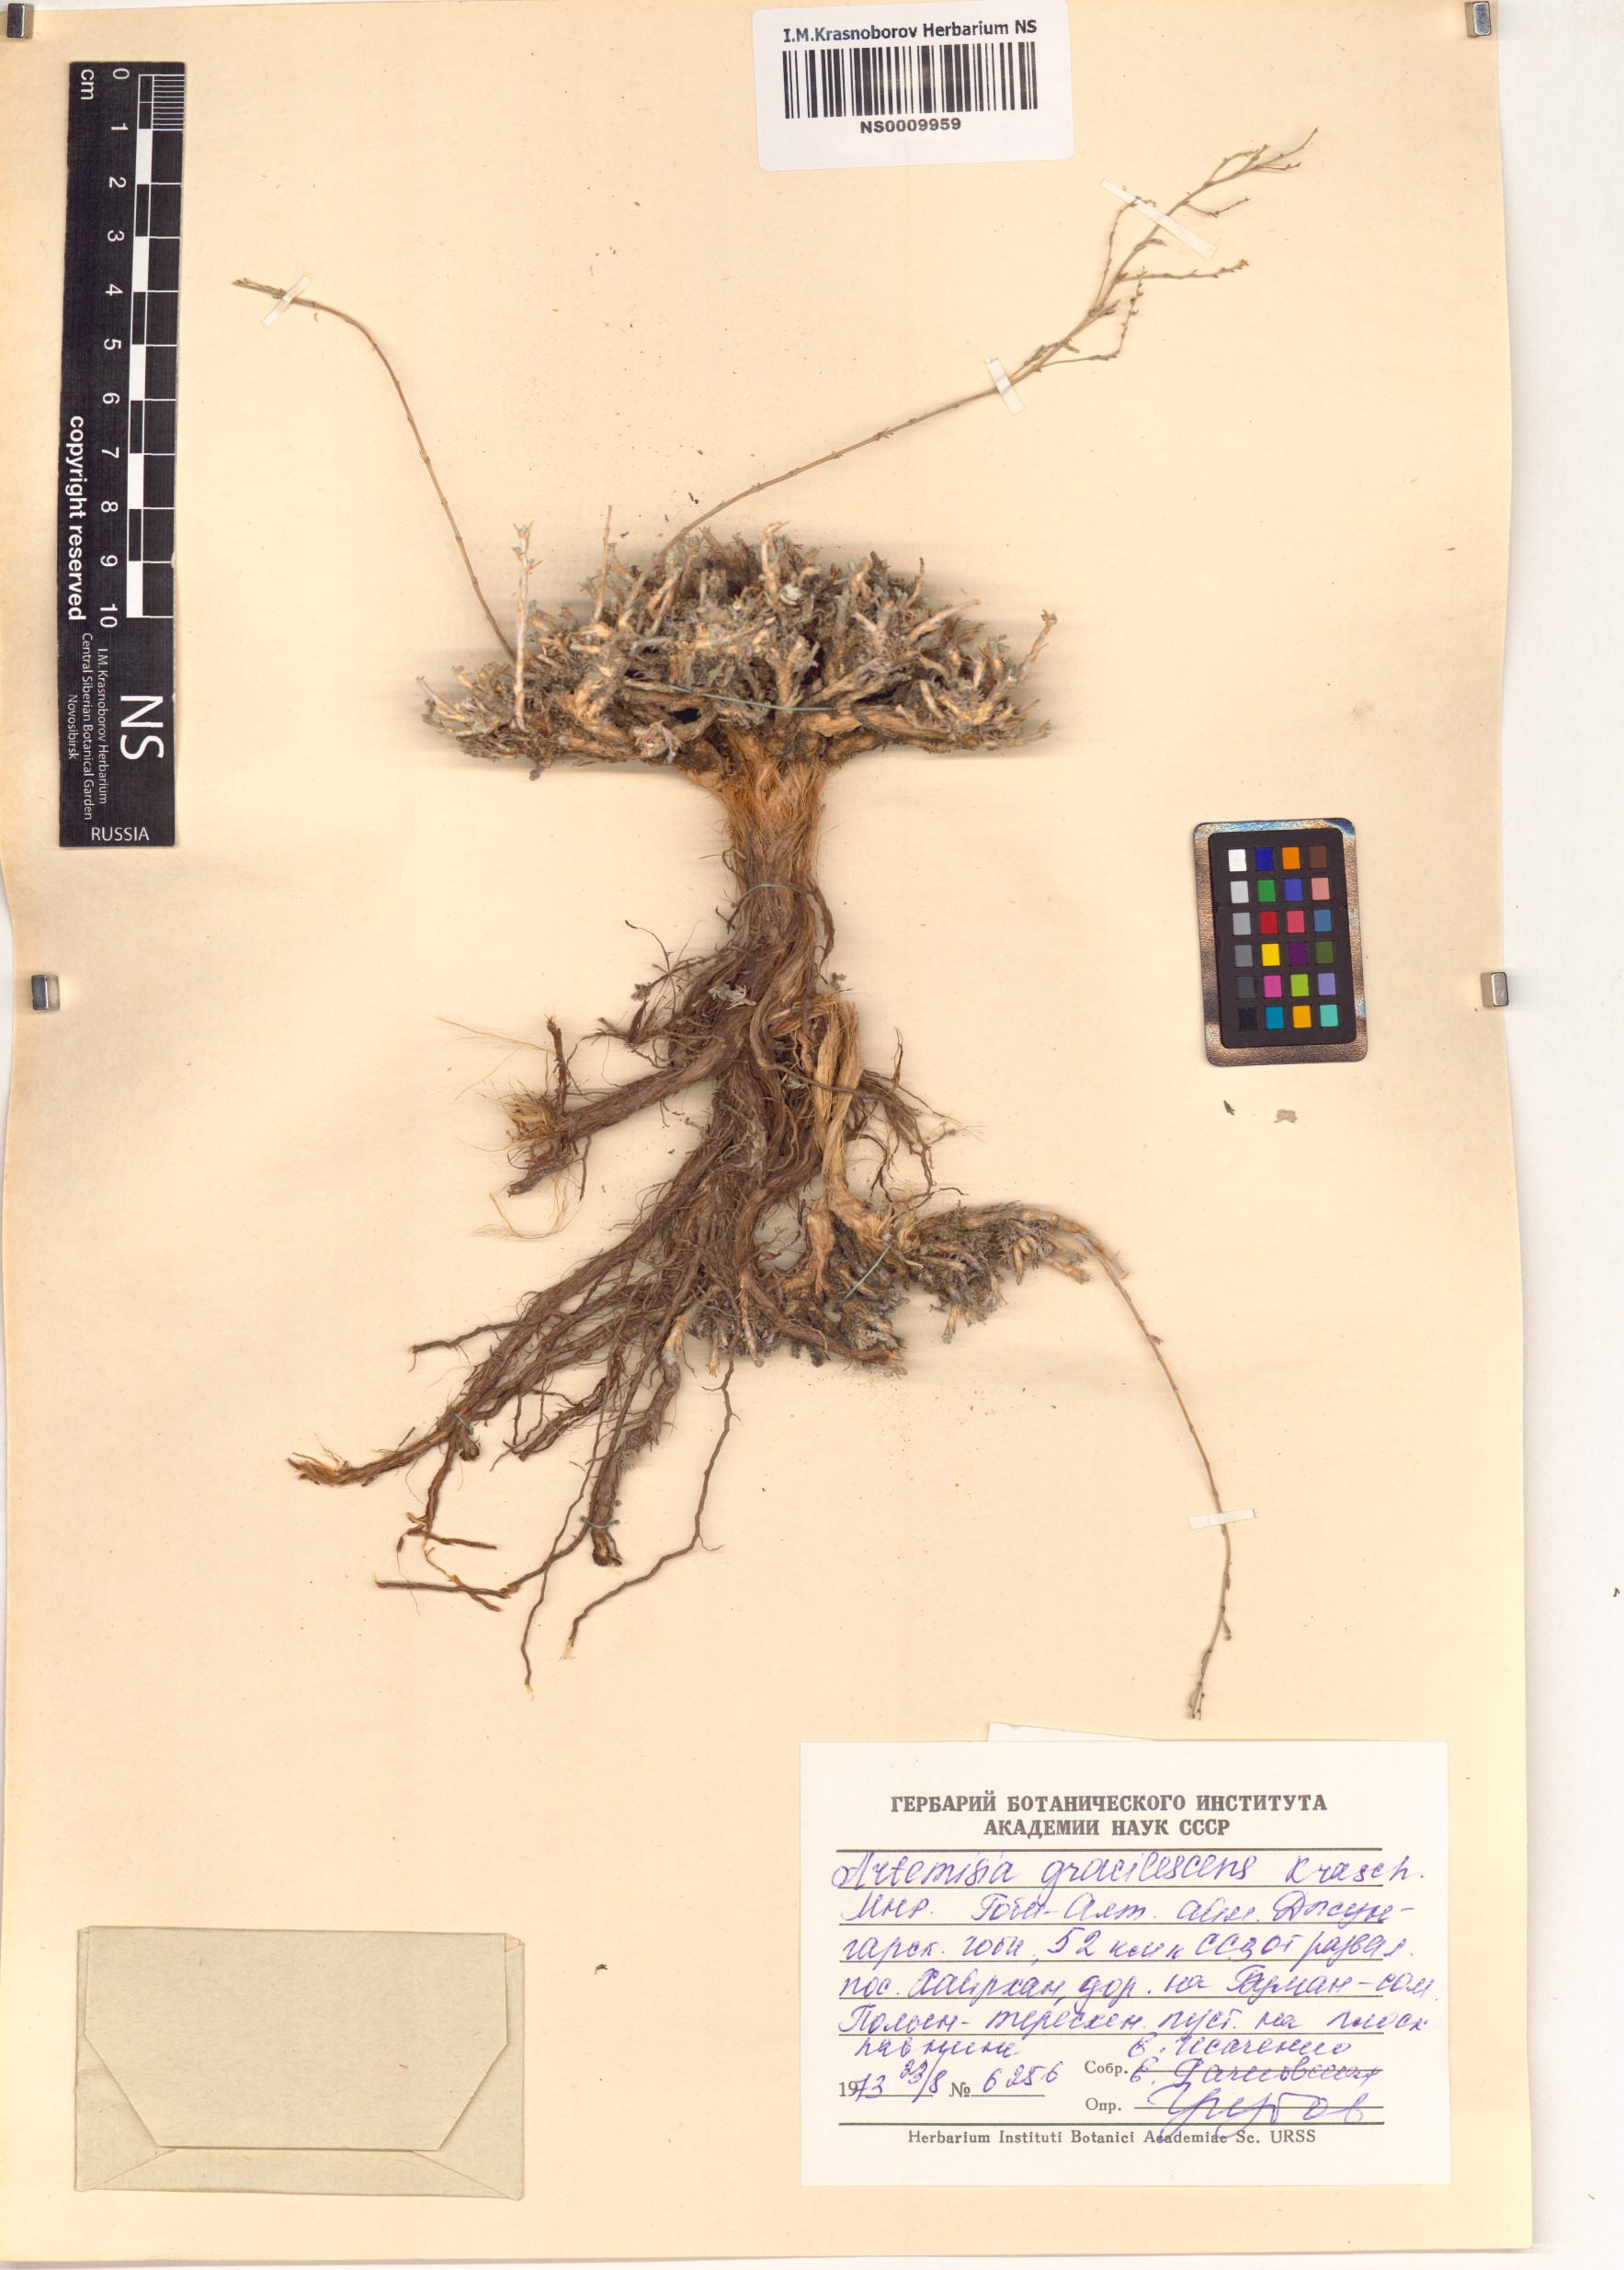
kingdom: Plantae
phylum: Tracheophyta
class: Magnoliopsida
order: Asterales
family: Asteraceae
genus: Artemisia
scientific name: Artemisia gracilescens
